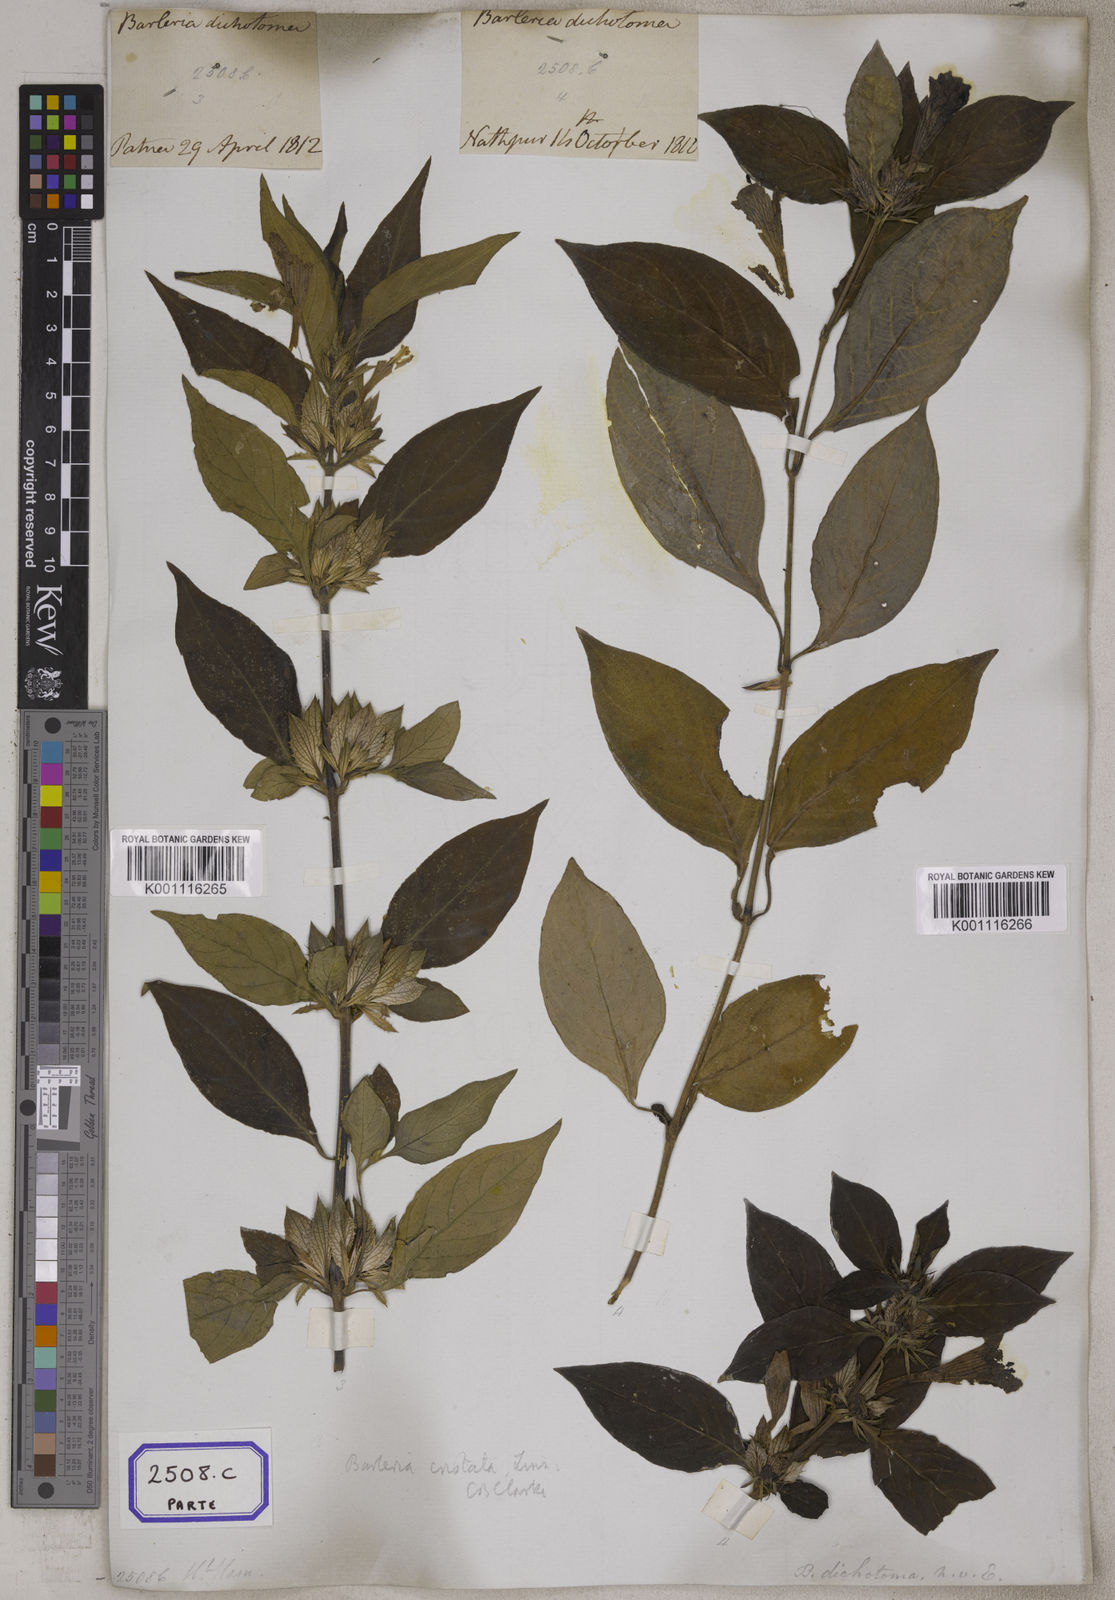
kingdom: Plantae
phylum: Tracheophyta
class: Magnoliopsida
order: Lamiales
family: Acanthaceae
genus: Barleria
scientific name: Barleria cristata
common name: Crested philippine violet
